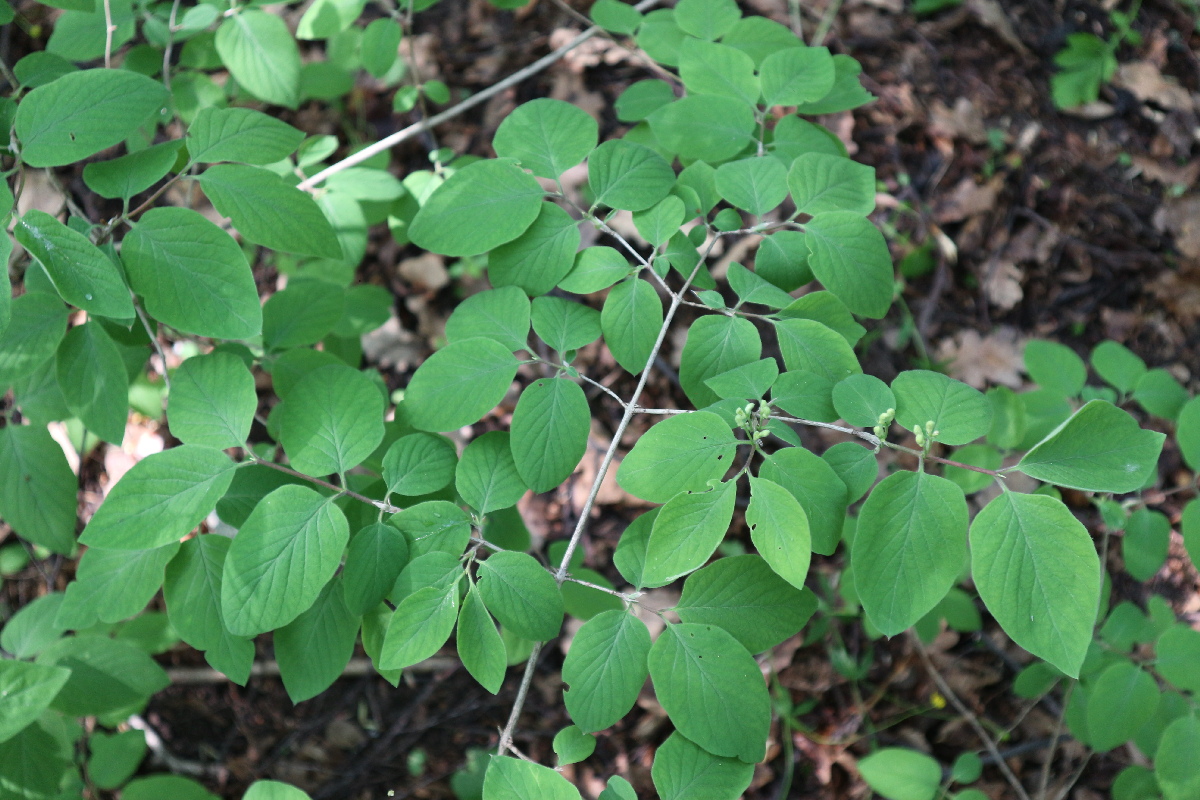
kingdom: Plantae
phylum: Tracheophyta
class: Magnoliopsida
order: Dipsacales
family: Caprifoliaceae
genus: Lonicera
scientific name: Lonicera tatarica
